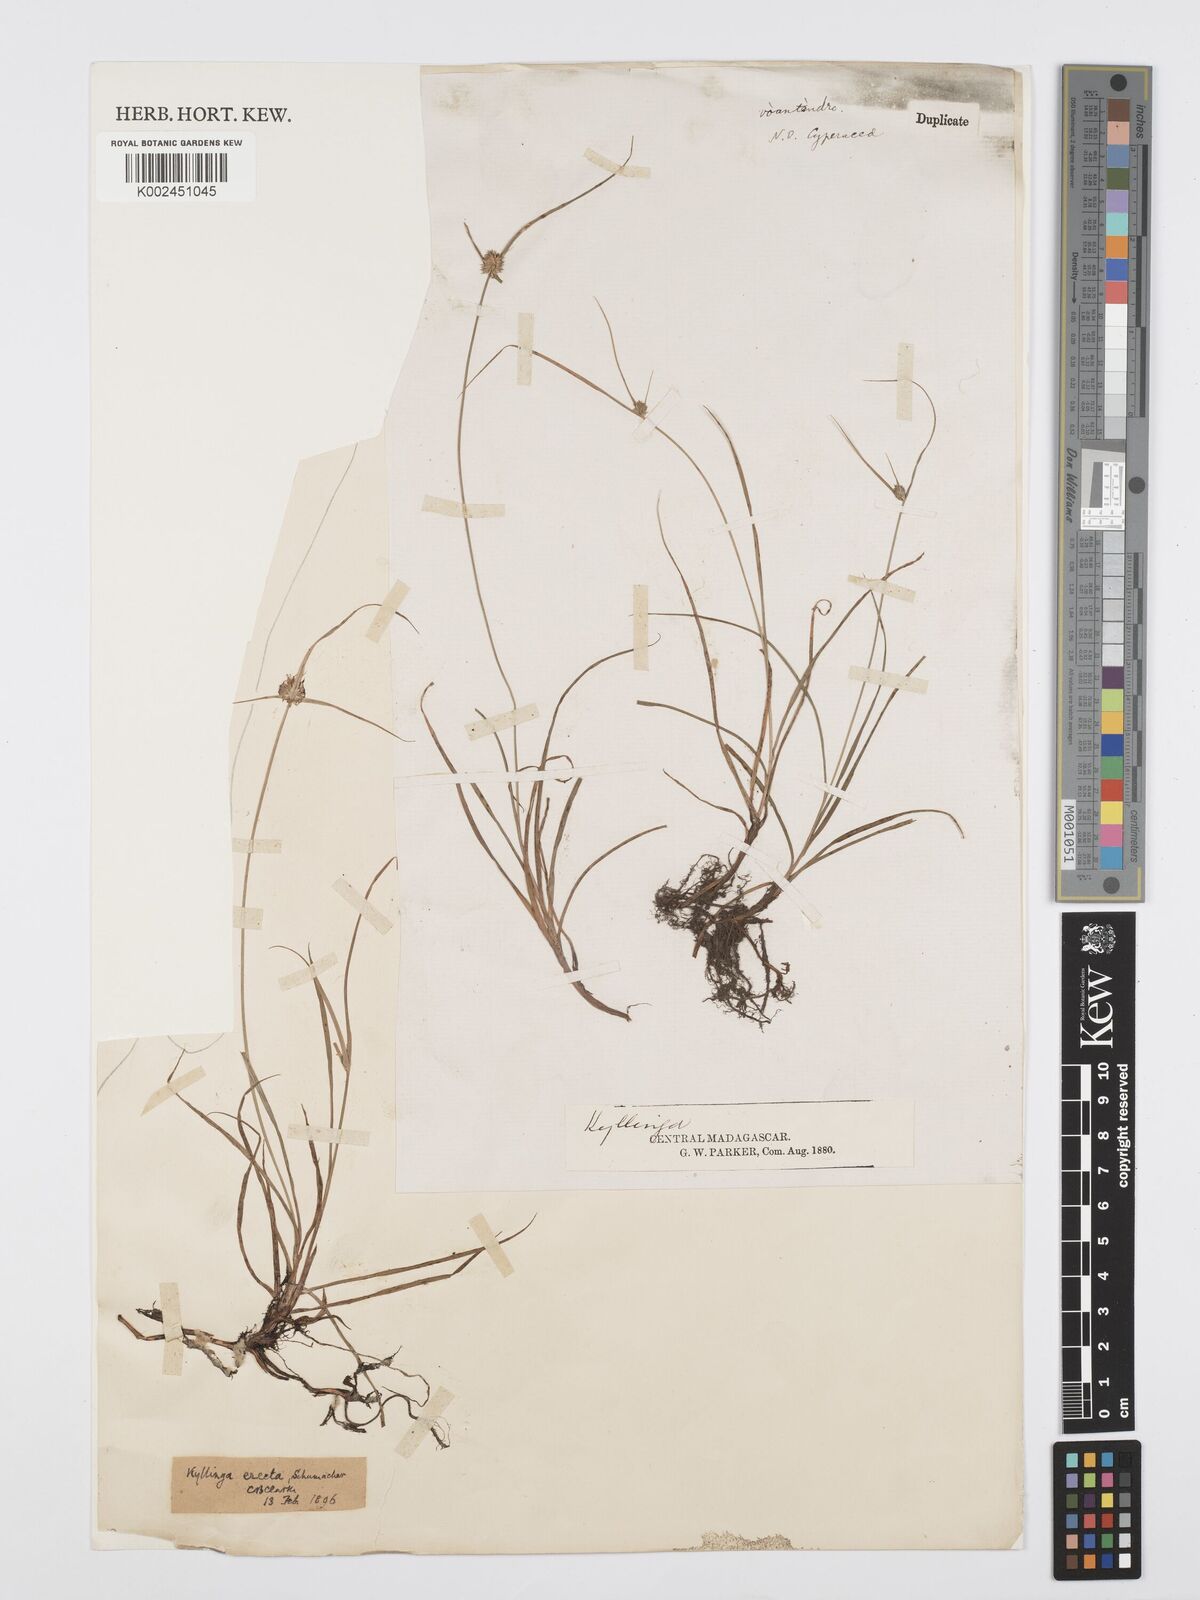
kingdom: Plantae
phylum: Tracheophyta
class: Liliopsida
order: Poales
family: Cyperaceae
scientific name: Cyperaceae
